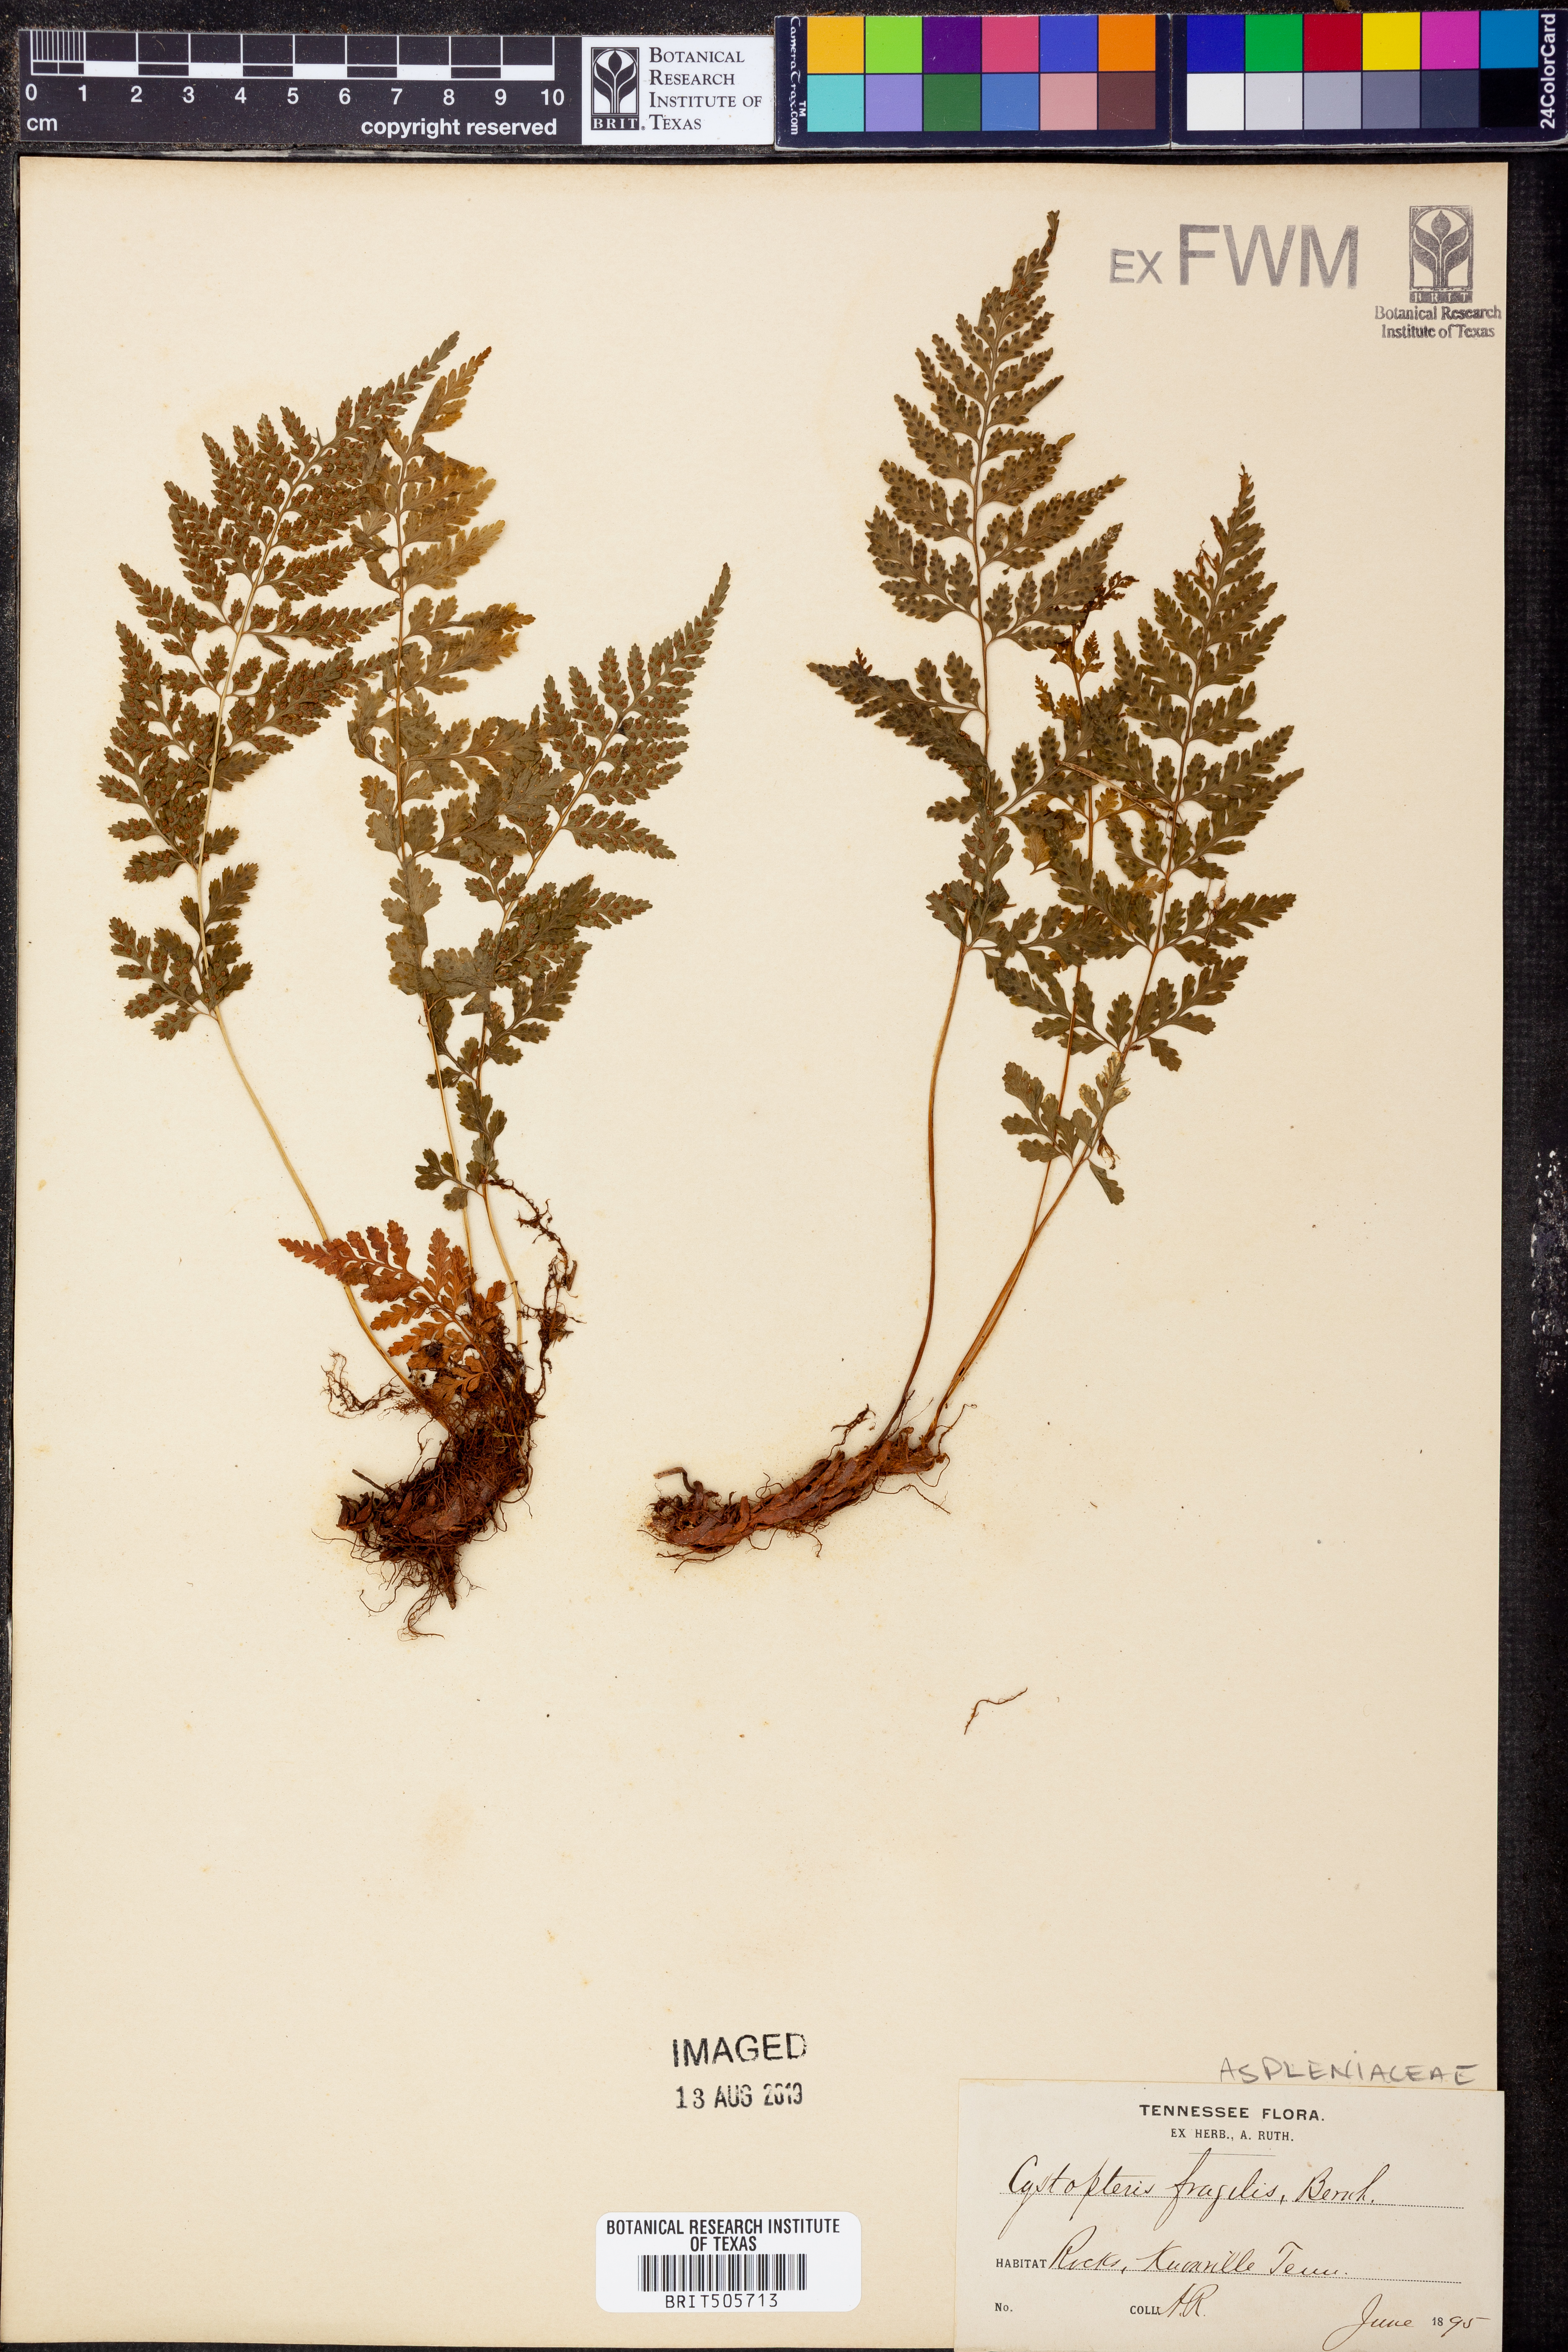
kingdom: Plantae
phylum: Tracheophyta
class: Polypodiopsida
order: Polypodiales
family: Cystopteridaceae
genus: Cystopteris
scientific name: Cystopteris fragilis
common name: Brittle bladder fern
